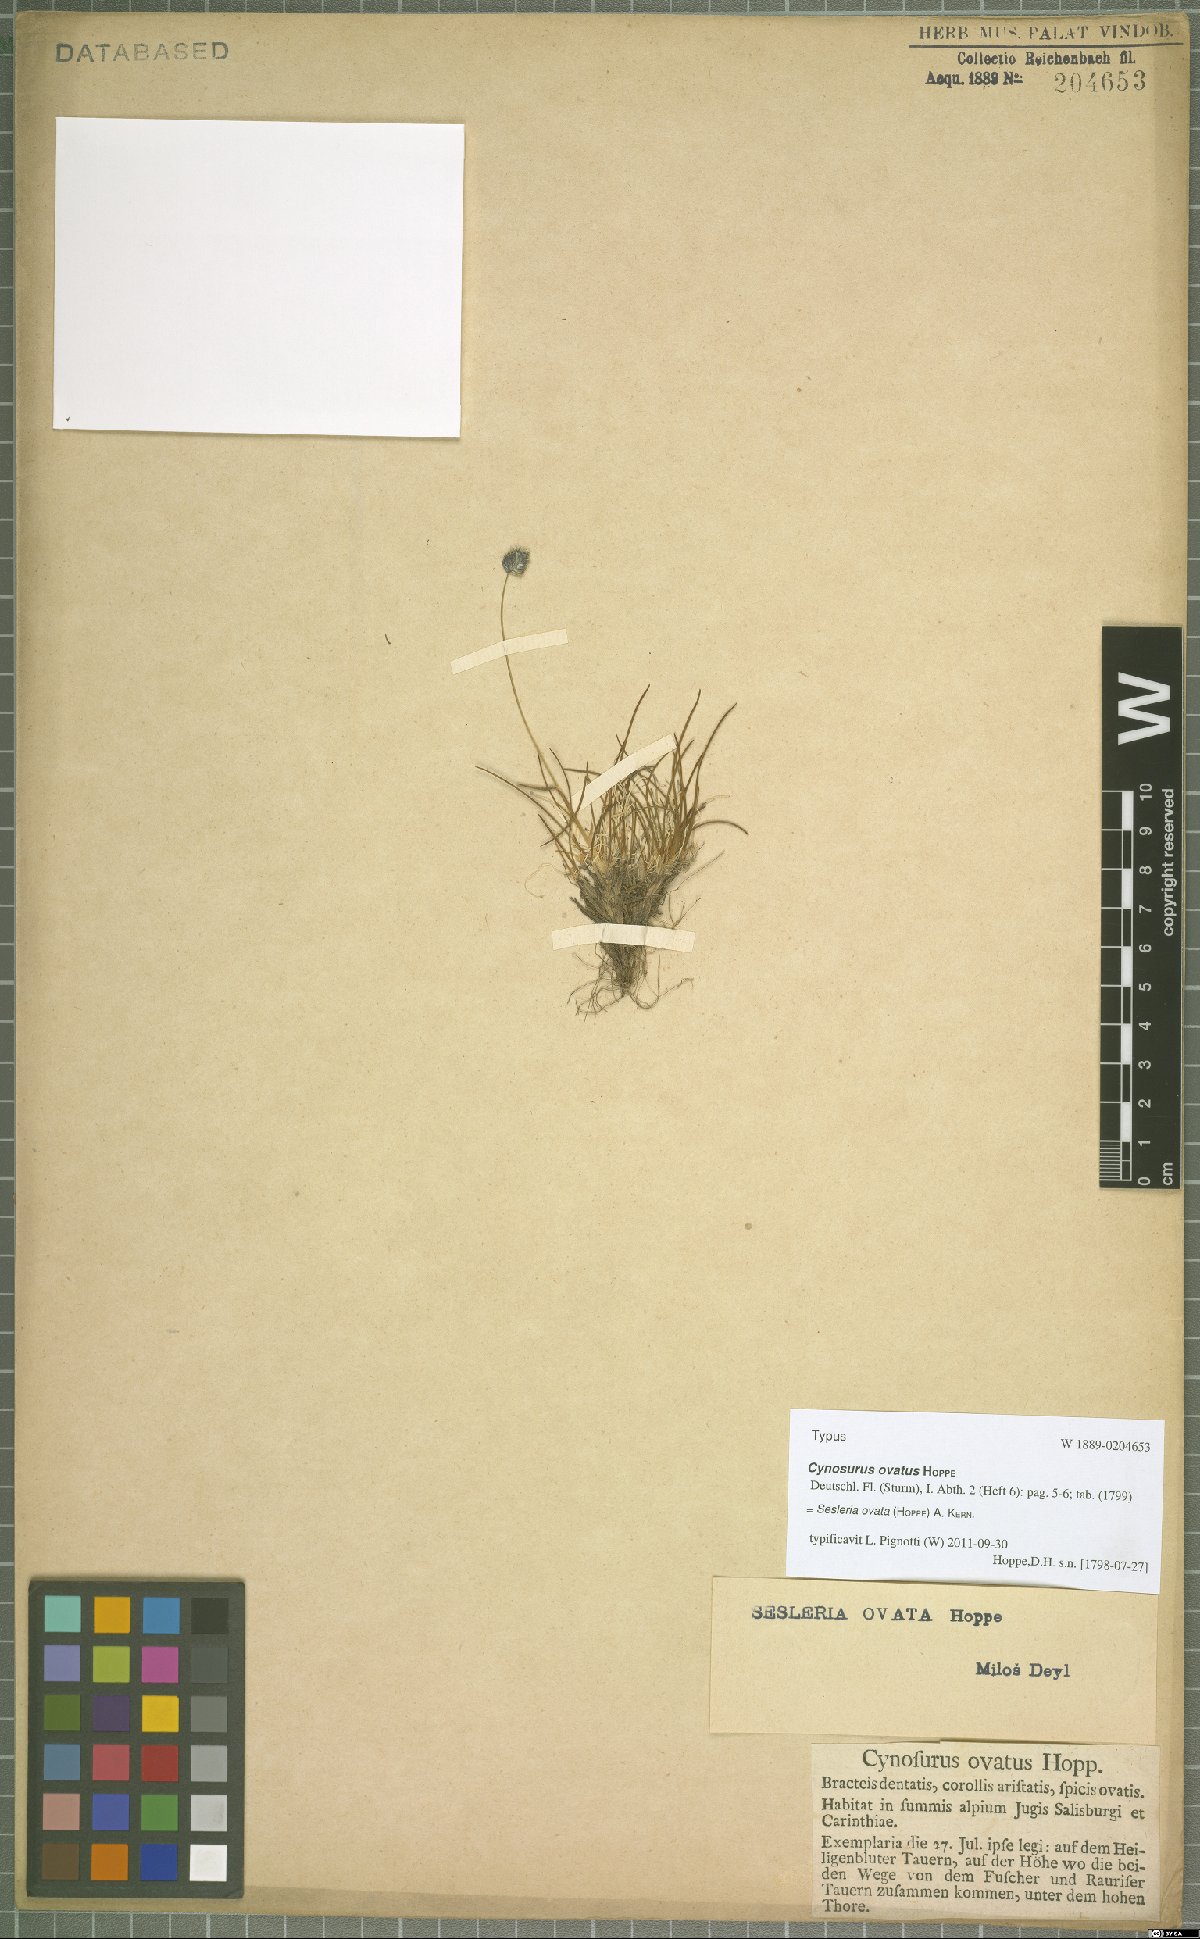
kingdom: Plantae
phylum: Tracheophyta
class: Liliopsida
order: Poales
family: Poaceae
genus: Psilathera
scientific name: Psilathera ovata
